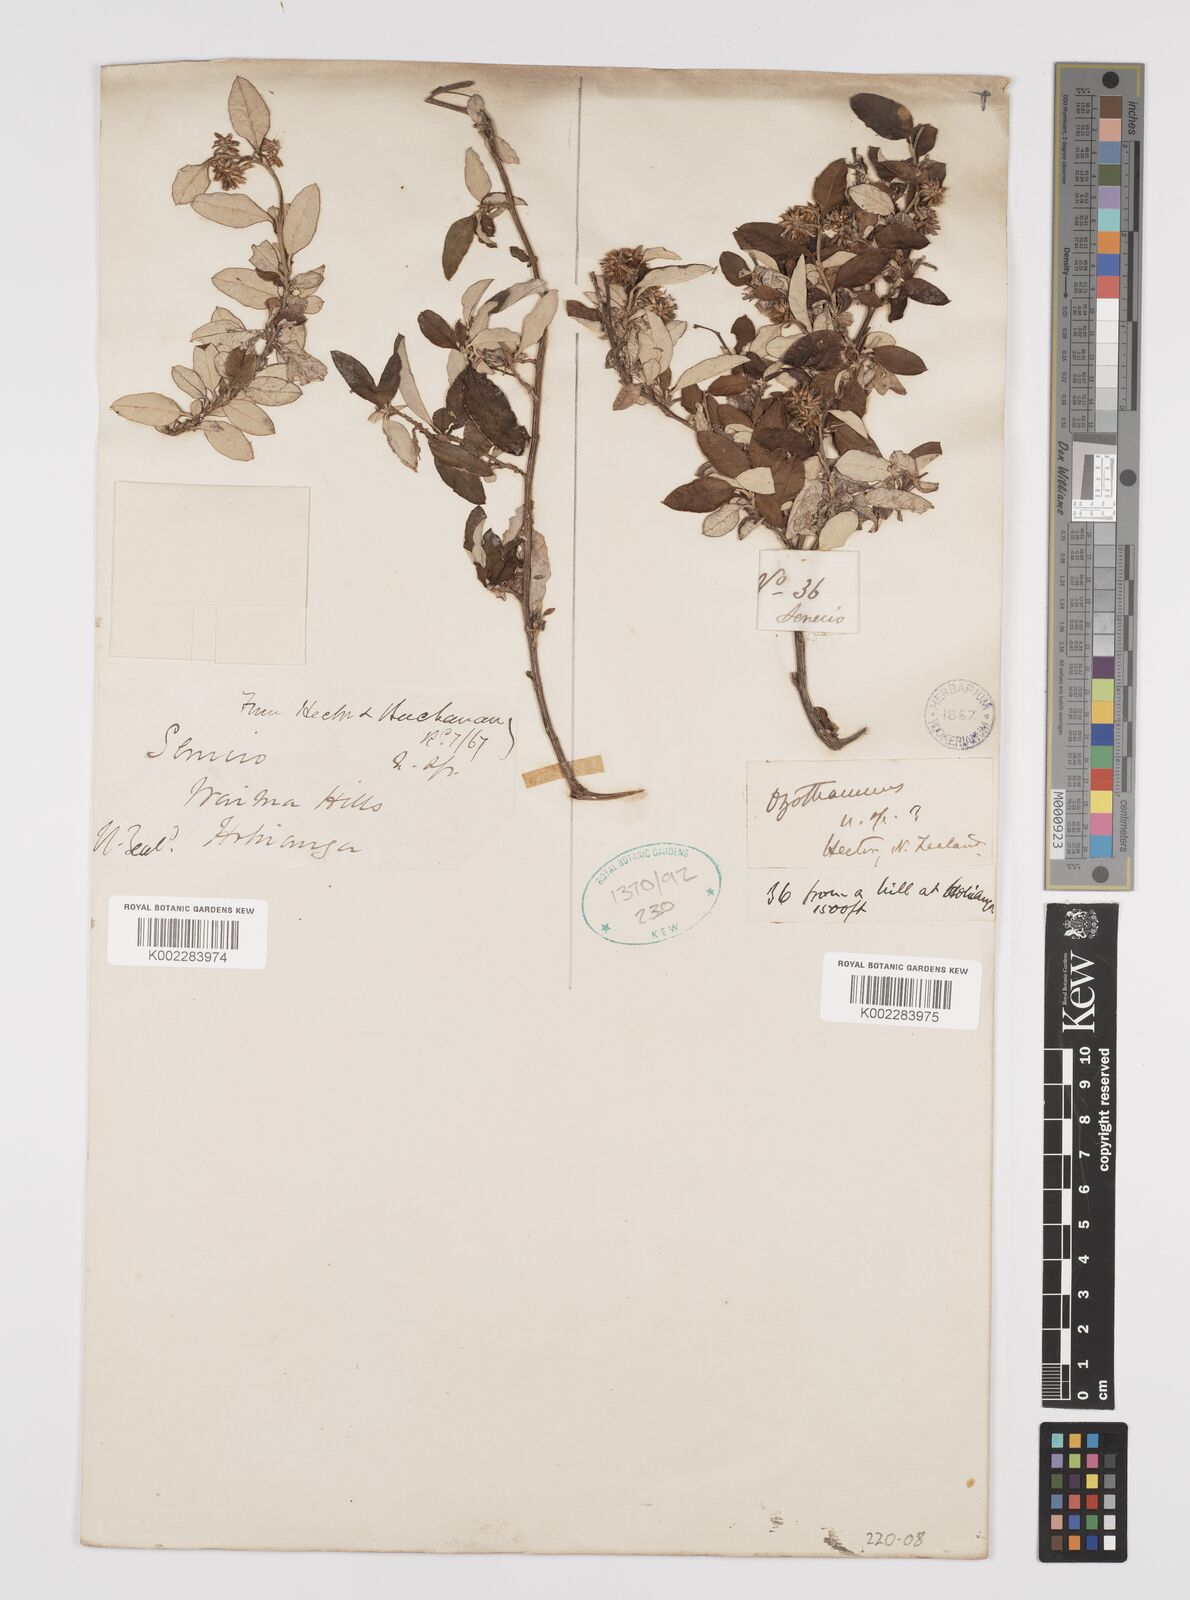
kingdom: Plantae
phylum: Tracheophyta
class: Magnoliopsida
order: Asterales
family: Asteraceae
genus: Ozothamnus
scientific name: Ozothamnus
